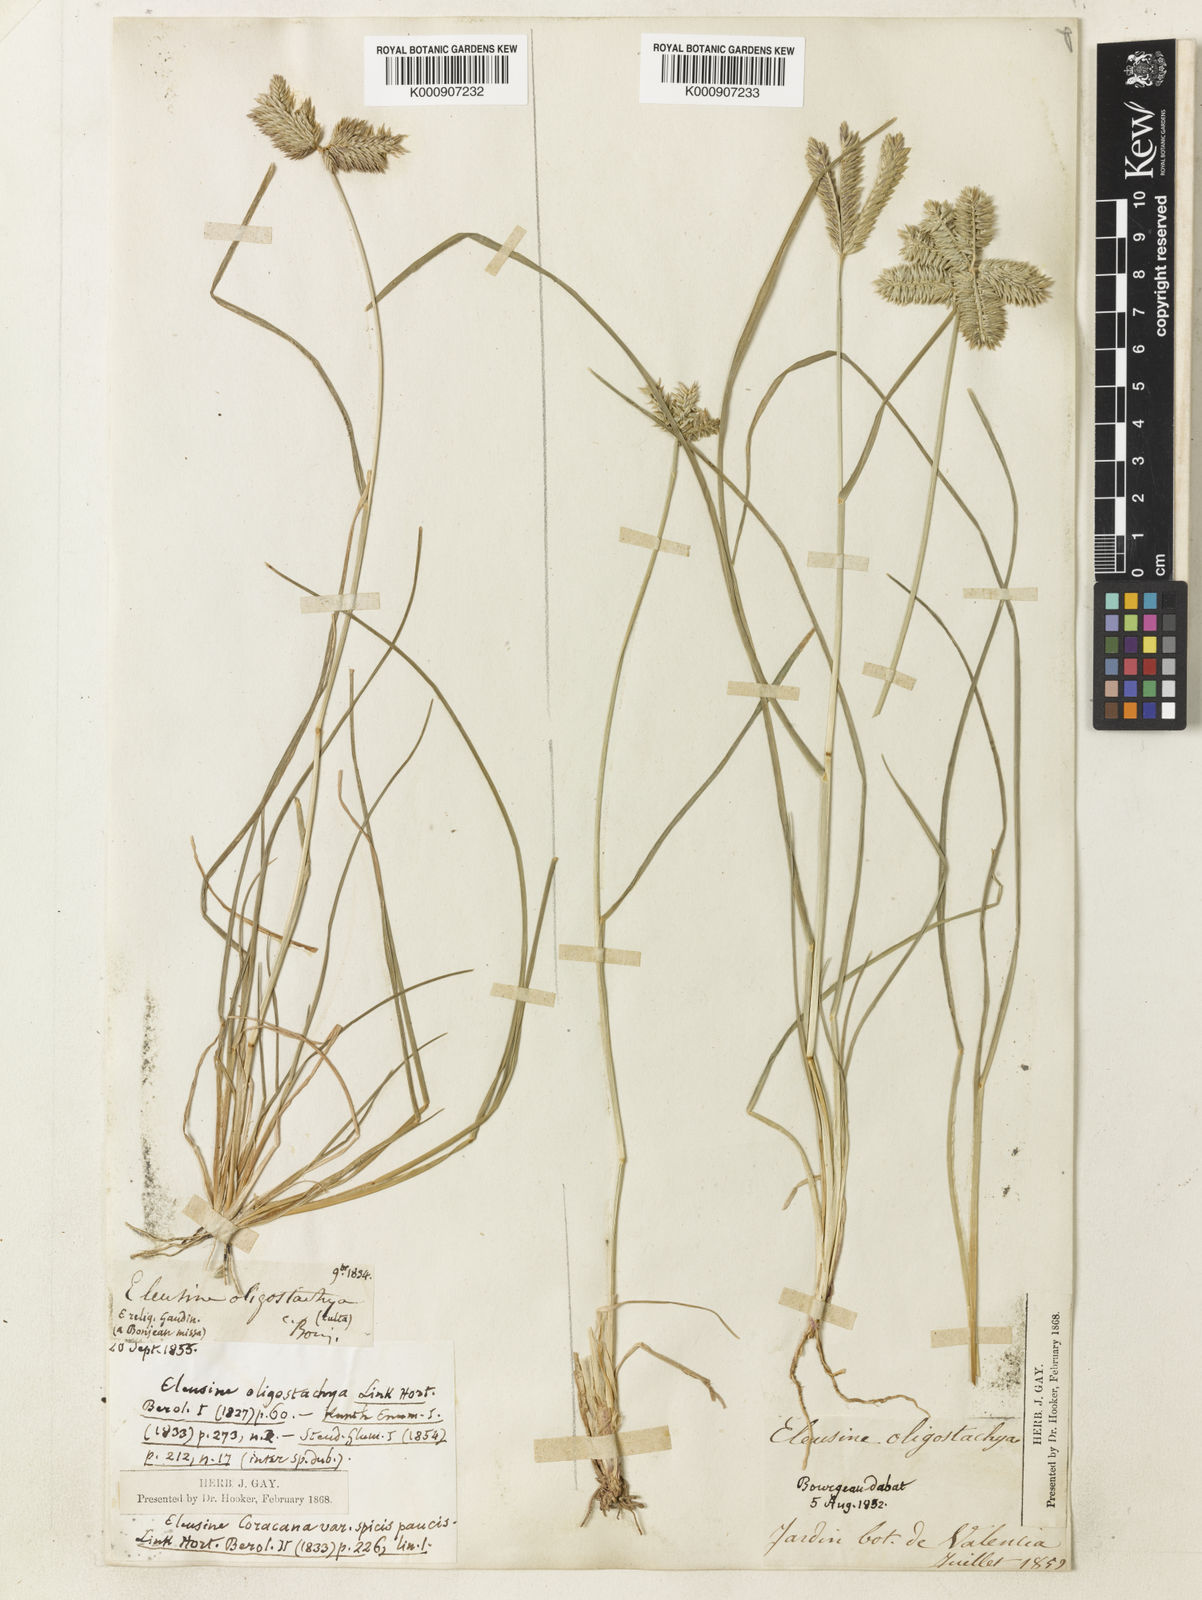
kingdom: Plantae
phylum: Tracheophyta
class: Liliopsida
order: Poales
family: Poaceae
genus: Eleusine
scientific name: Eleusine tristachya
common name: American yard-grass
